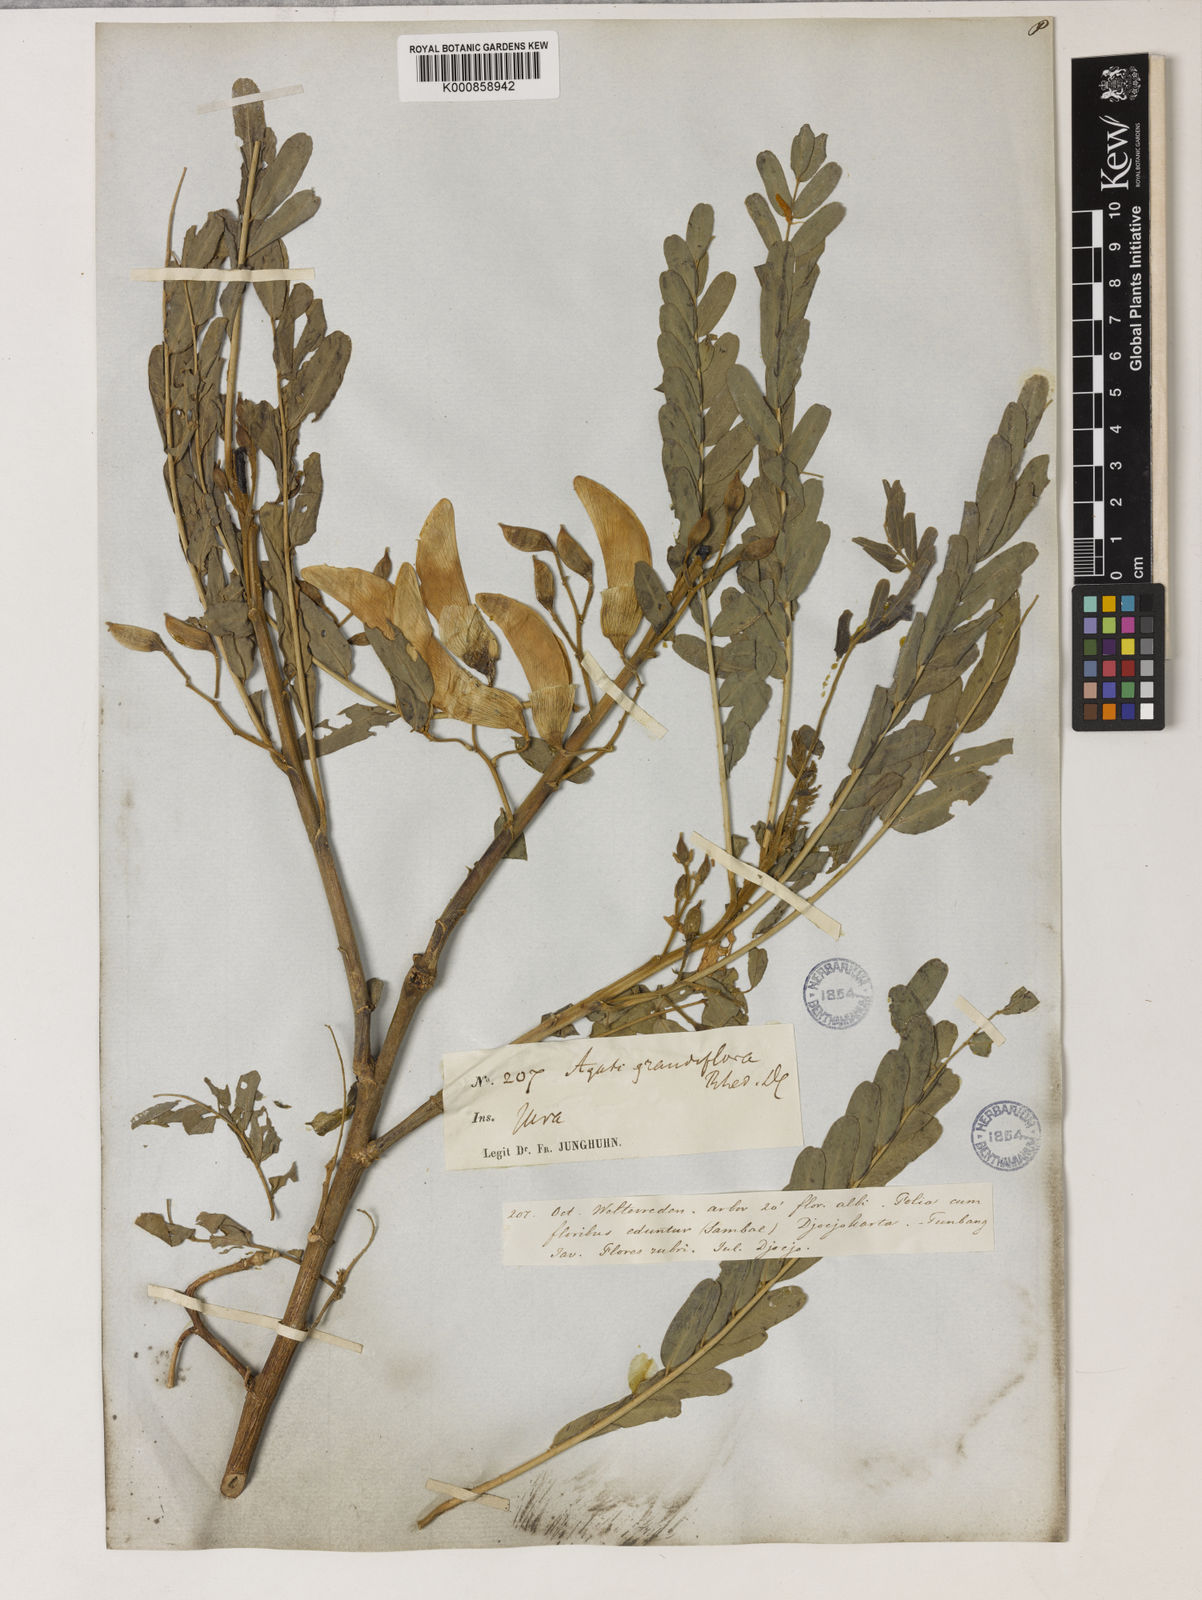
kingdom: Plantae
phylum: Tracheophyta
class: Magnoliopsida
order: Fabales
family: Fabaceae
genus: Sesbania
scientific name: Sesbania
